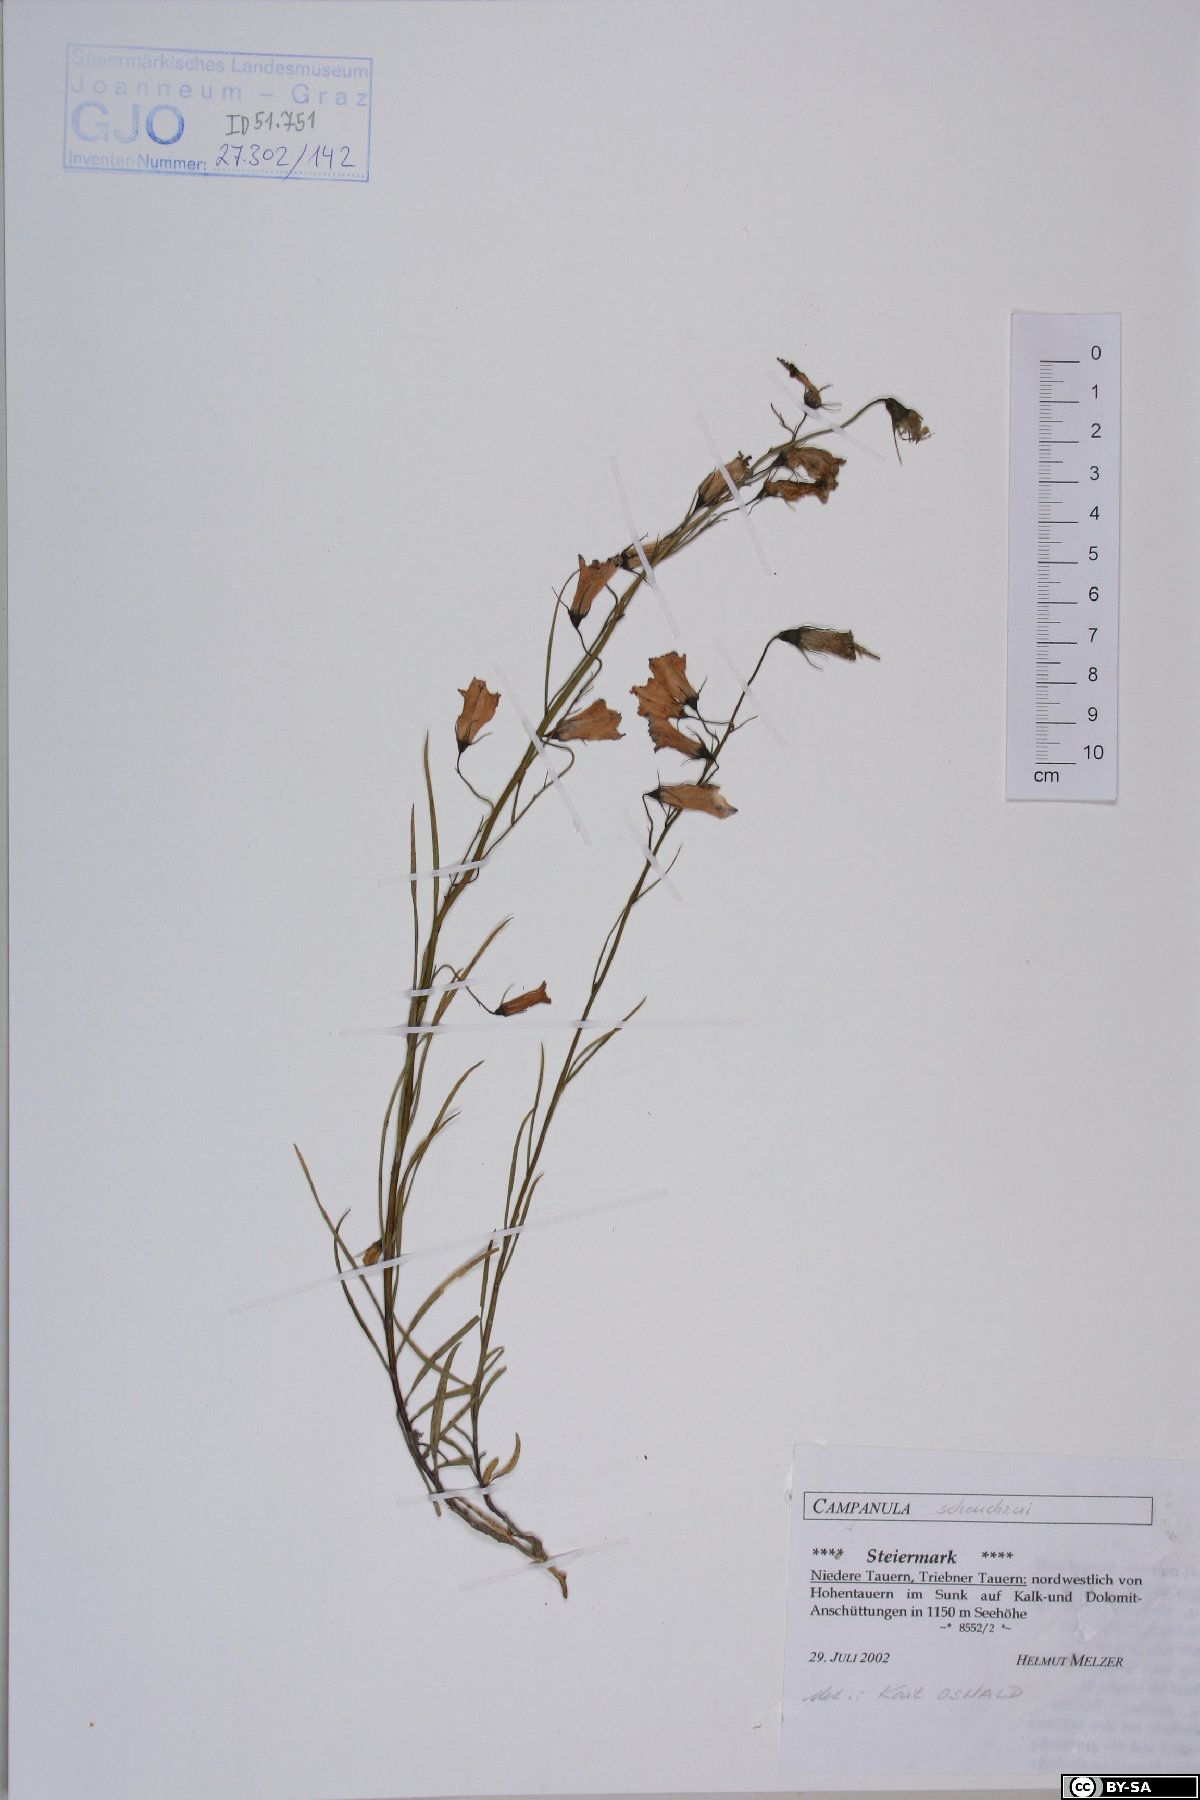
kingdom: Plantae
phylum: Tracheophyta
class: Magnoliopsida
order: Asterales
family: Campanulaceae
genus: Campanula
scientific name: Campanula scheuchzeri
